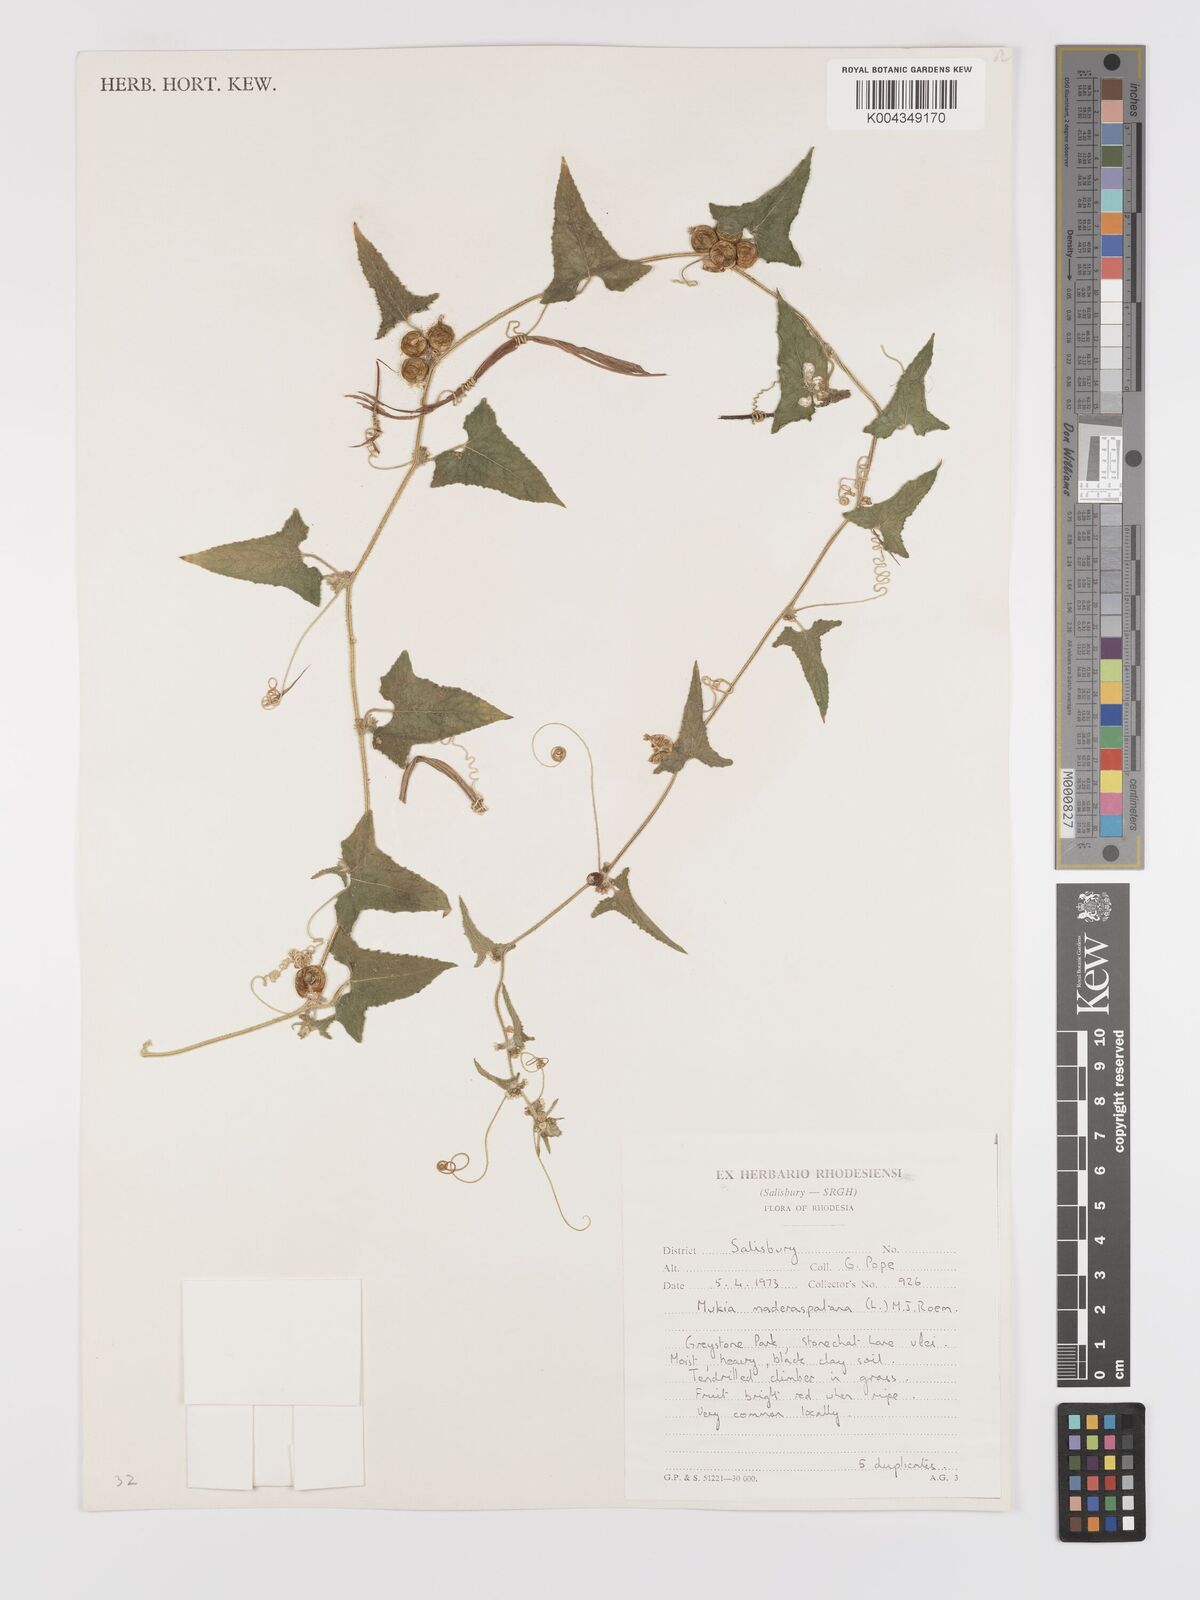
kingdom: Plantae
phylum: Tracheophyta
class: Magnoliopsida
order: Cucurbitales
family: Cucurbitaceae
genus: Cucumis
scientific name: Cucumis maderaspatanus
